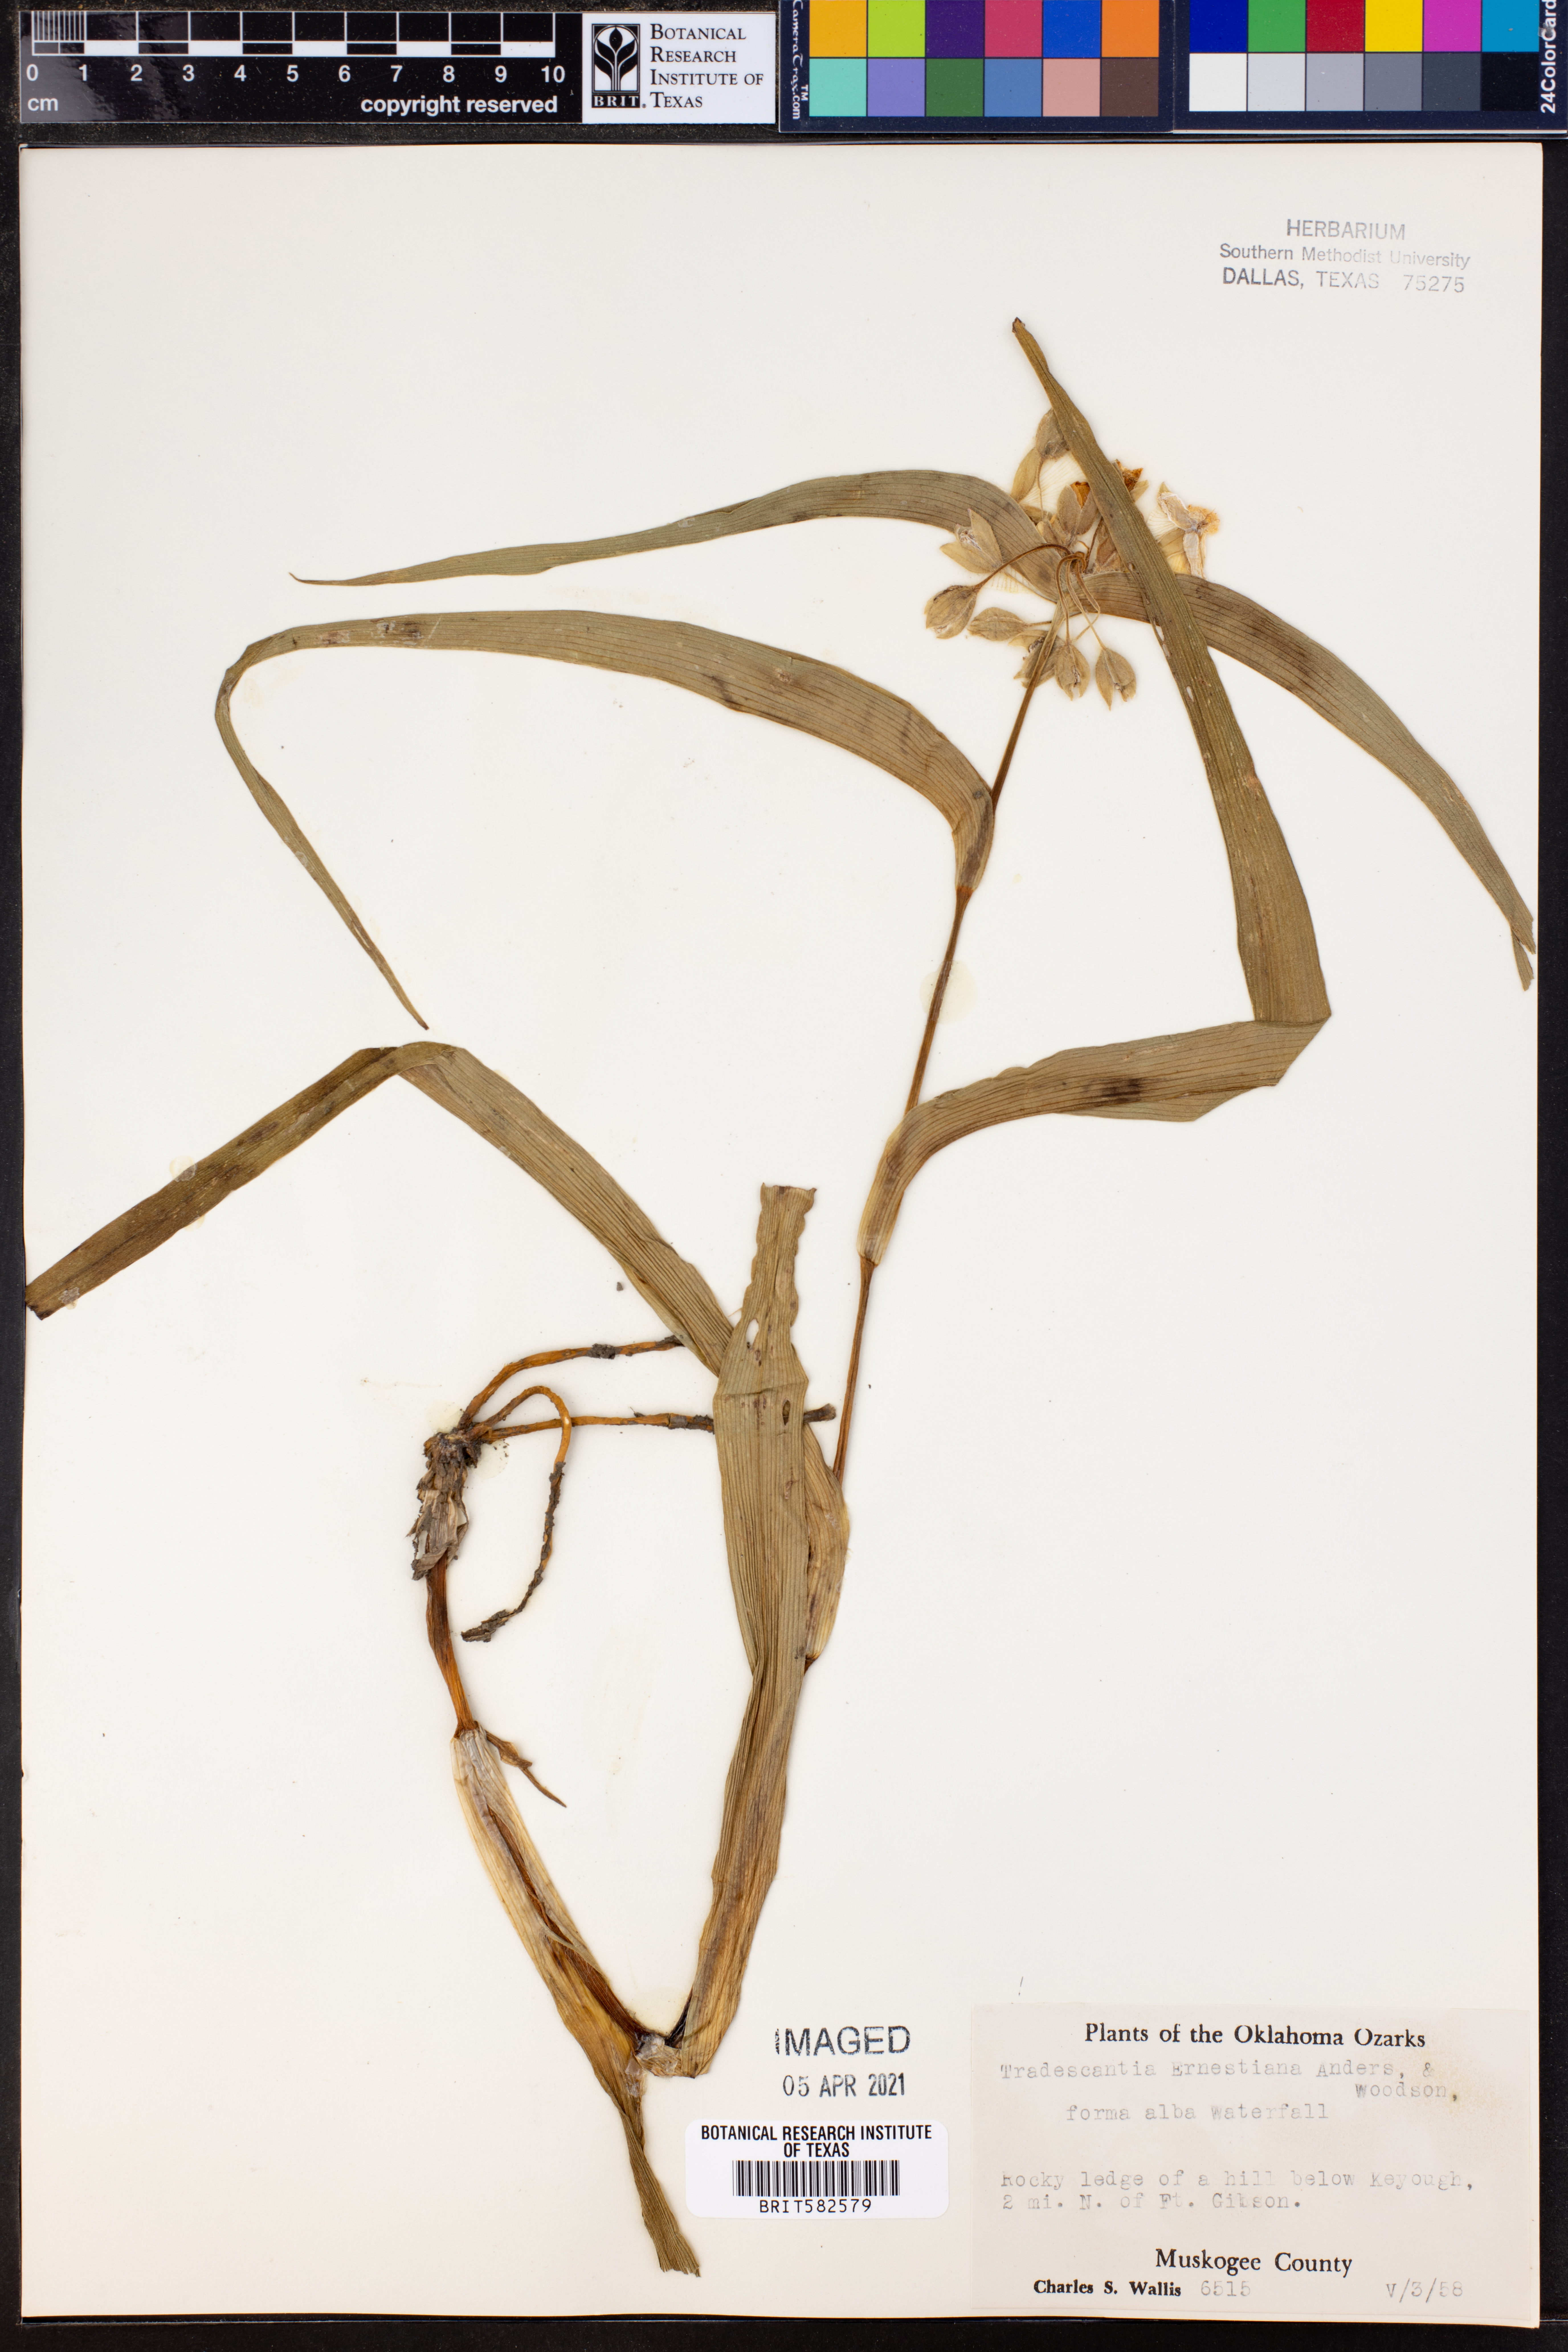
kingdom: Plantae
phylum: Tracheophyta
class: Liliopsida
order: Commelinales
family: Commelinaceae
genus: Tradescantia
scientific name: Tradescantia ernestiana
